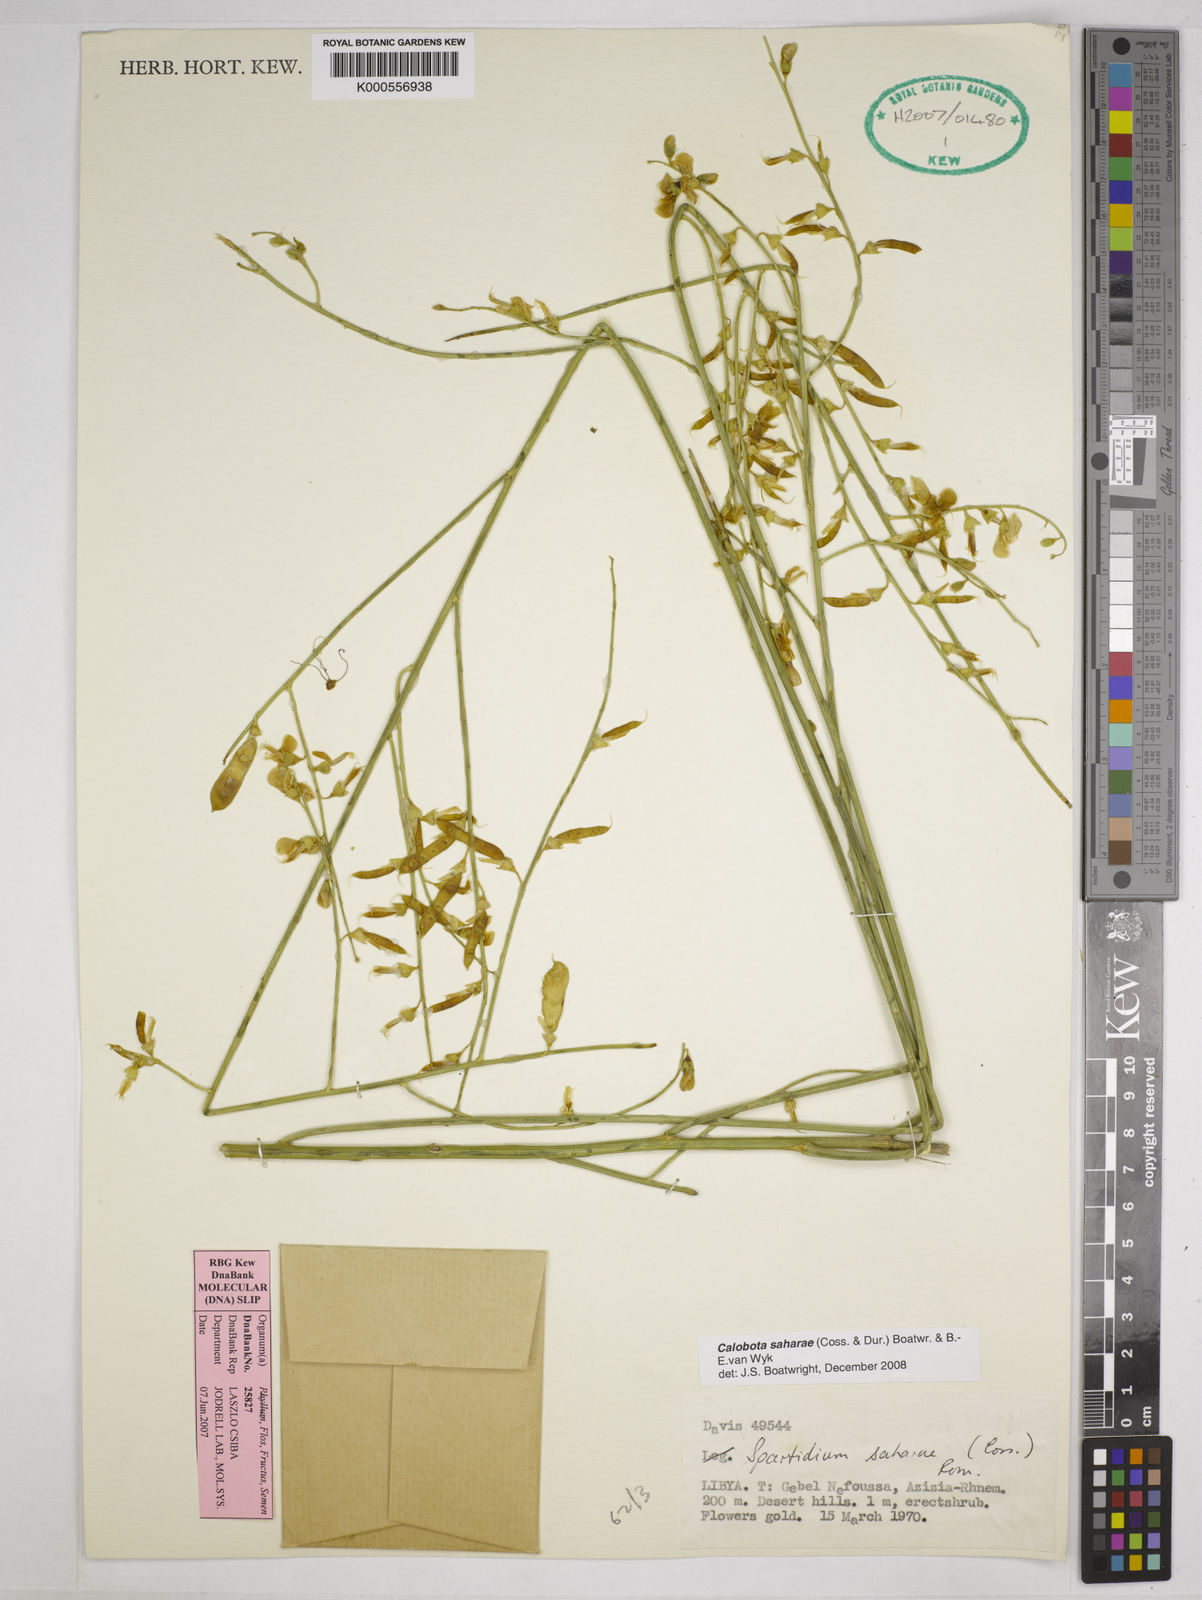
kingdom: Plantae
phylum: Tracheophyta
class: Magnoliopsida
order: Fabales
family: Fabaceae
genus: Calobota
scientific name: Calobota saharae
